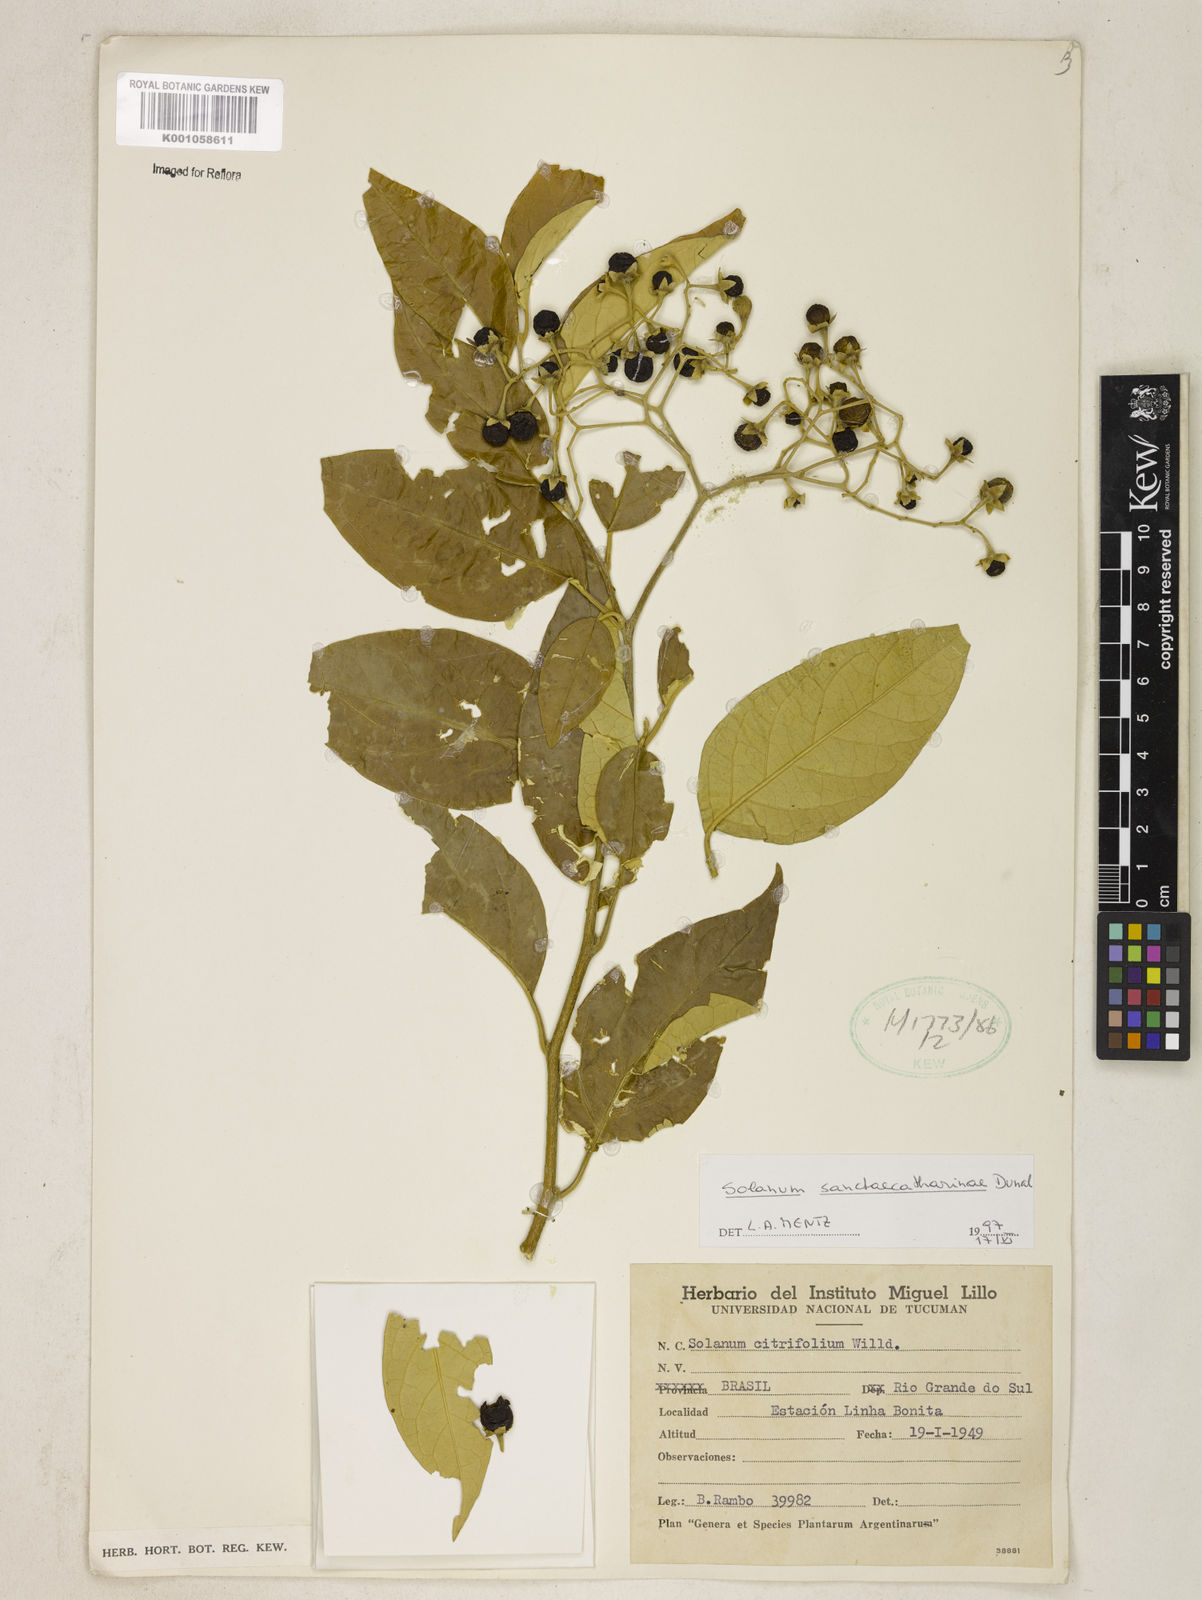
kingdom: Plantae
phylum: Tracheophyta
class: Magnoliopsida
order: Solanales
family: Solanaceae
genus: Solanum
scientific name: Solanum sanctae-catharinae
